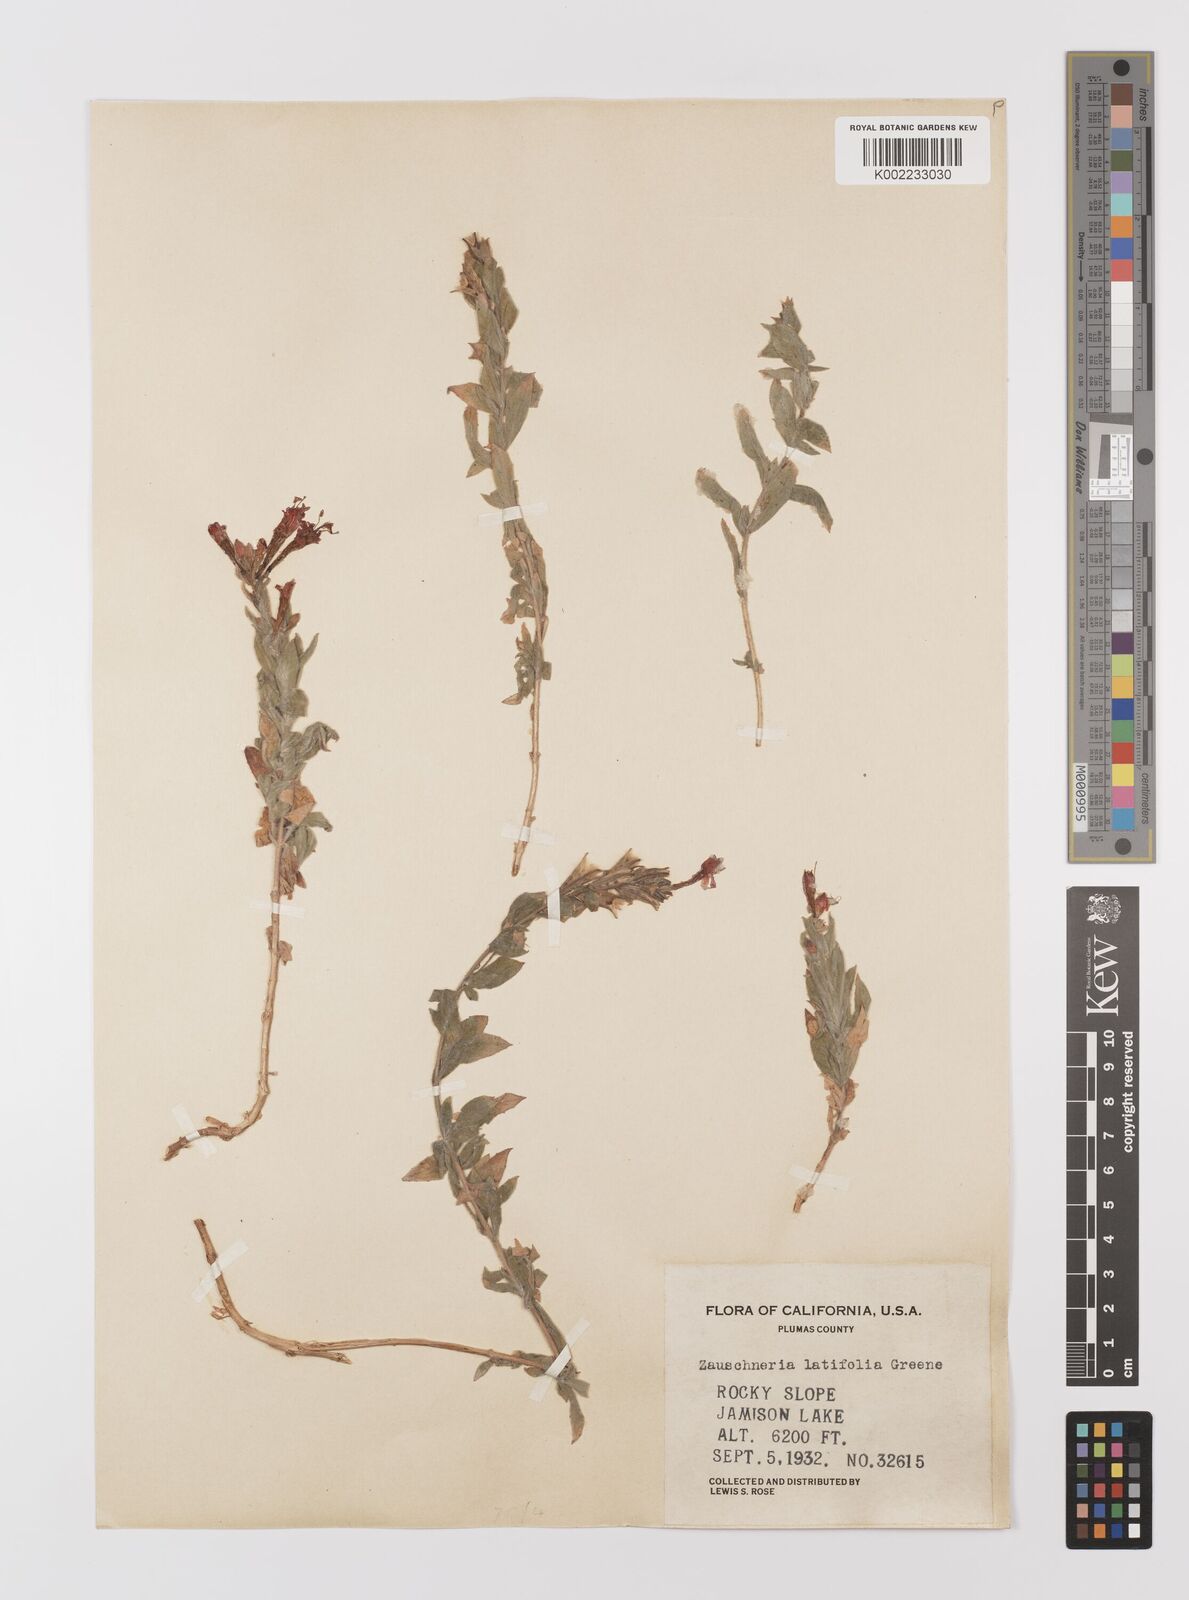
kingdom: Plantae
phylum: Tracheophyta
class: Magnoliopsida
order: Myrtales
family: Onagraceae
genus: Epilobium
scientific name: Epilobium septentrionale
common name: Humboldt county-fuchsia
